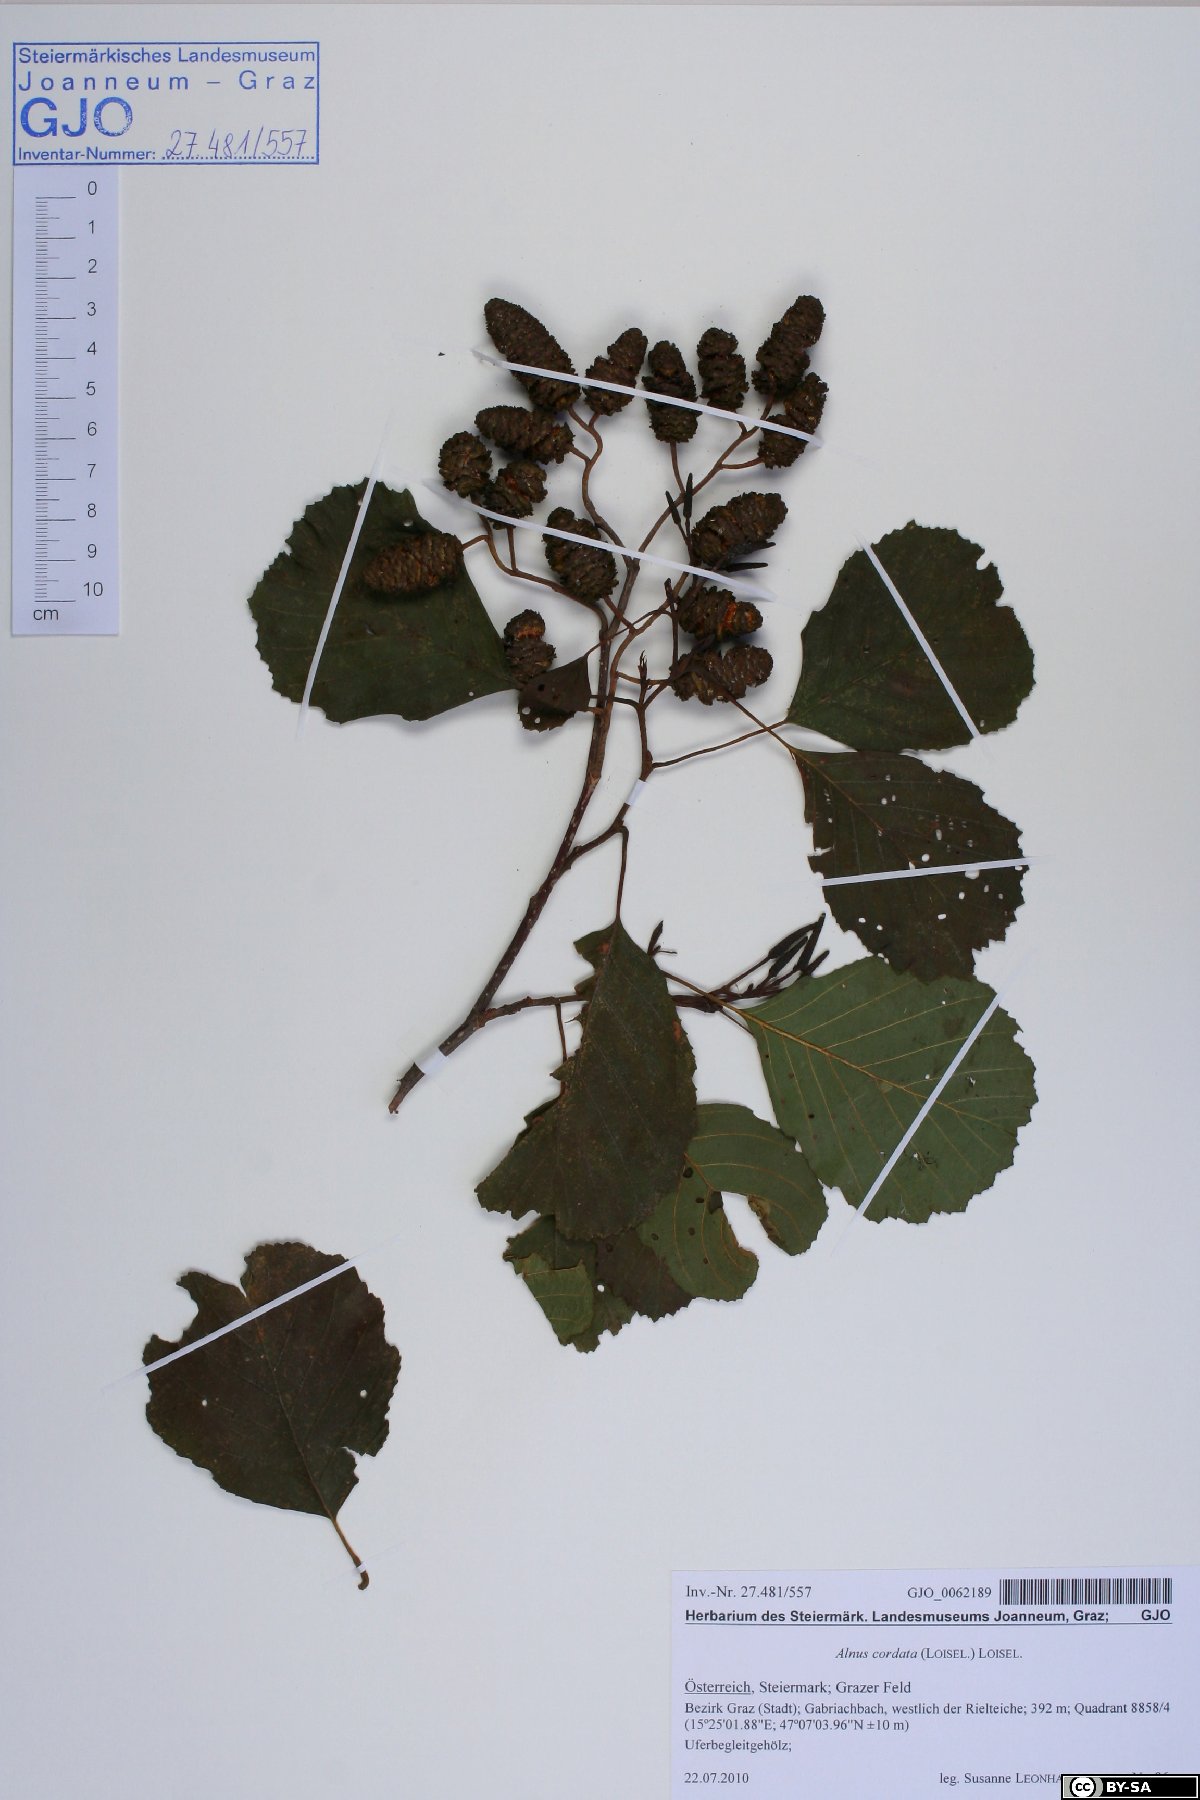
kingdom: Plantae
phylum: Tracheophyta
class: Magnoliopsida
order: Fagales
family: Betulaceae
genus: Alnus
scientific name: Alnus glutinosa
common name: Black alder
